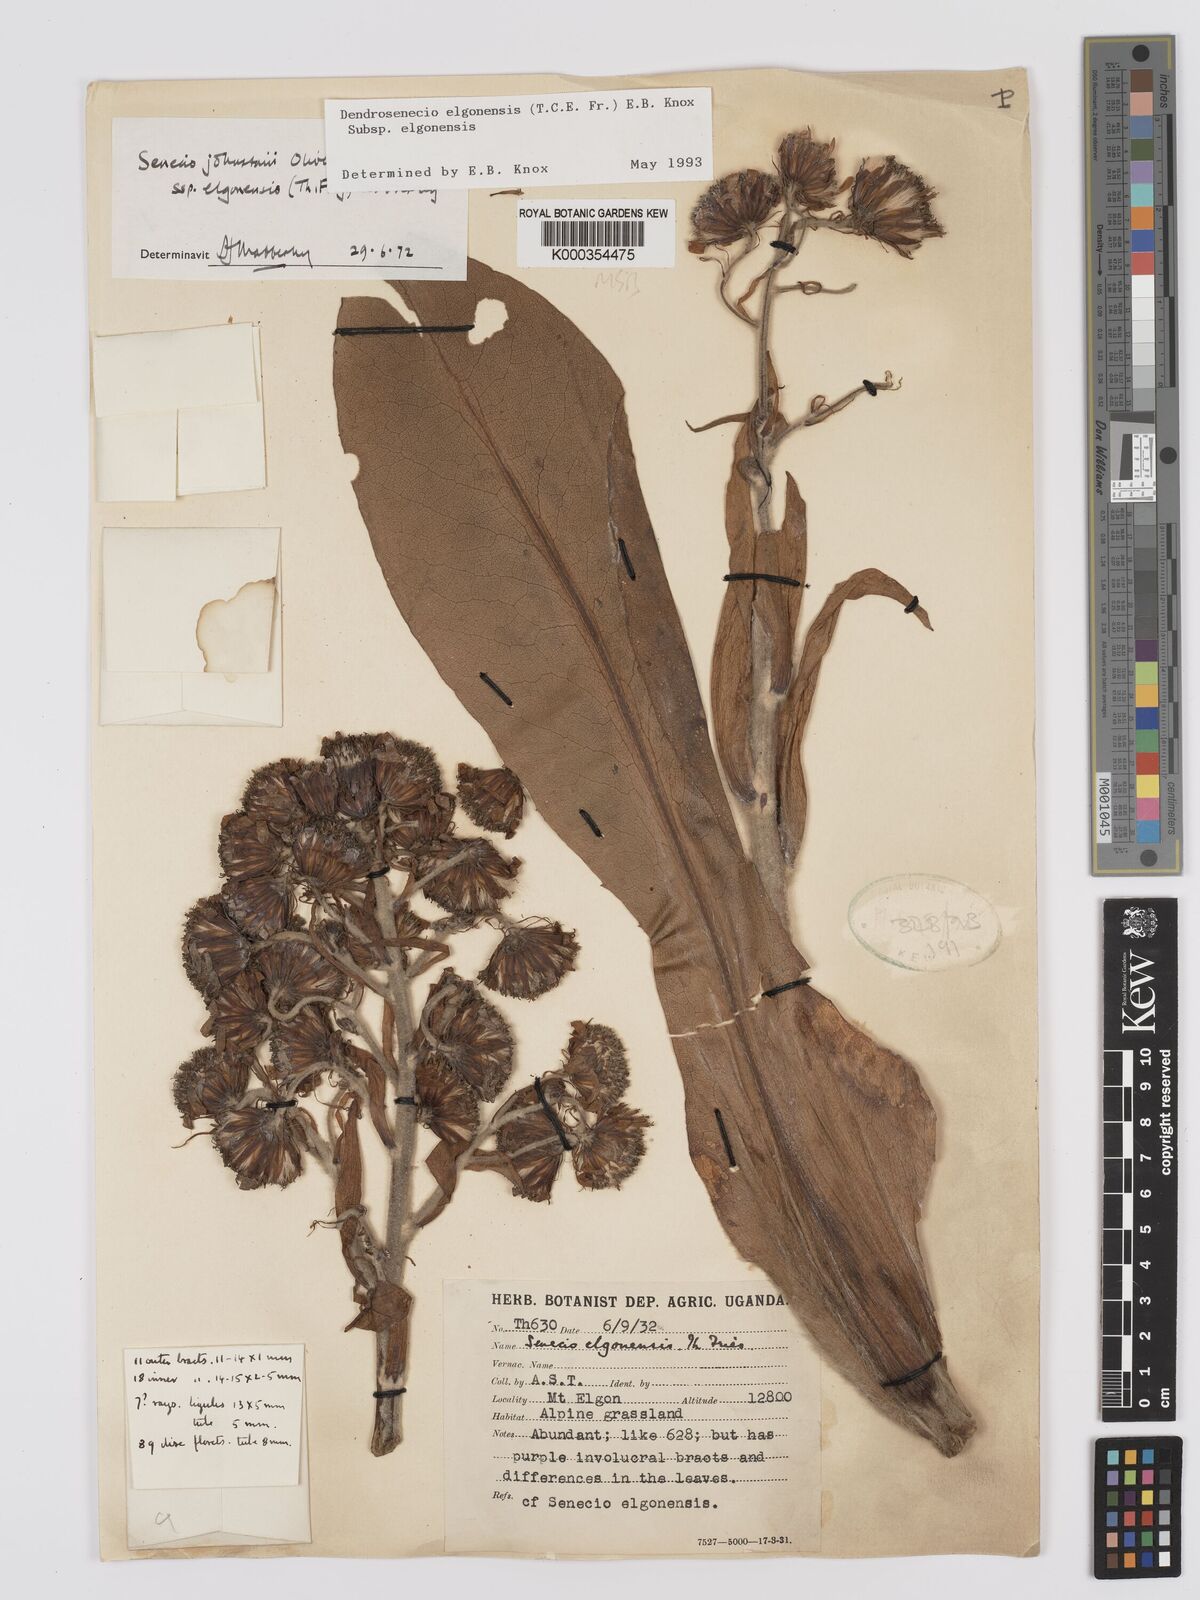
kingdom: Plantae
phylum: Tracheophyta
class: Magnoliopsida
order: Asterales
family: Asteraceae
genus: Dendrosenecio
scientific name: Dendrosenecio elgonensis
